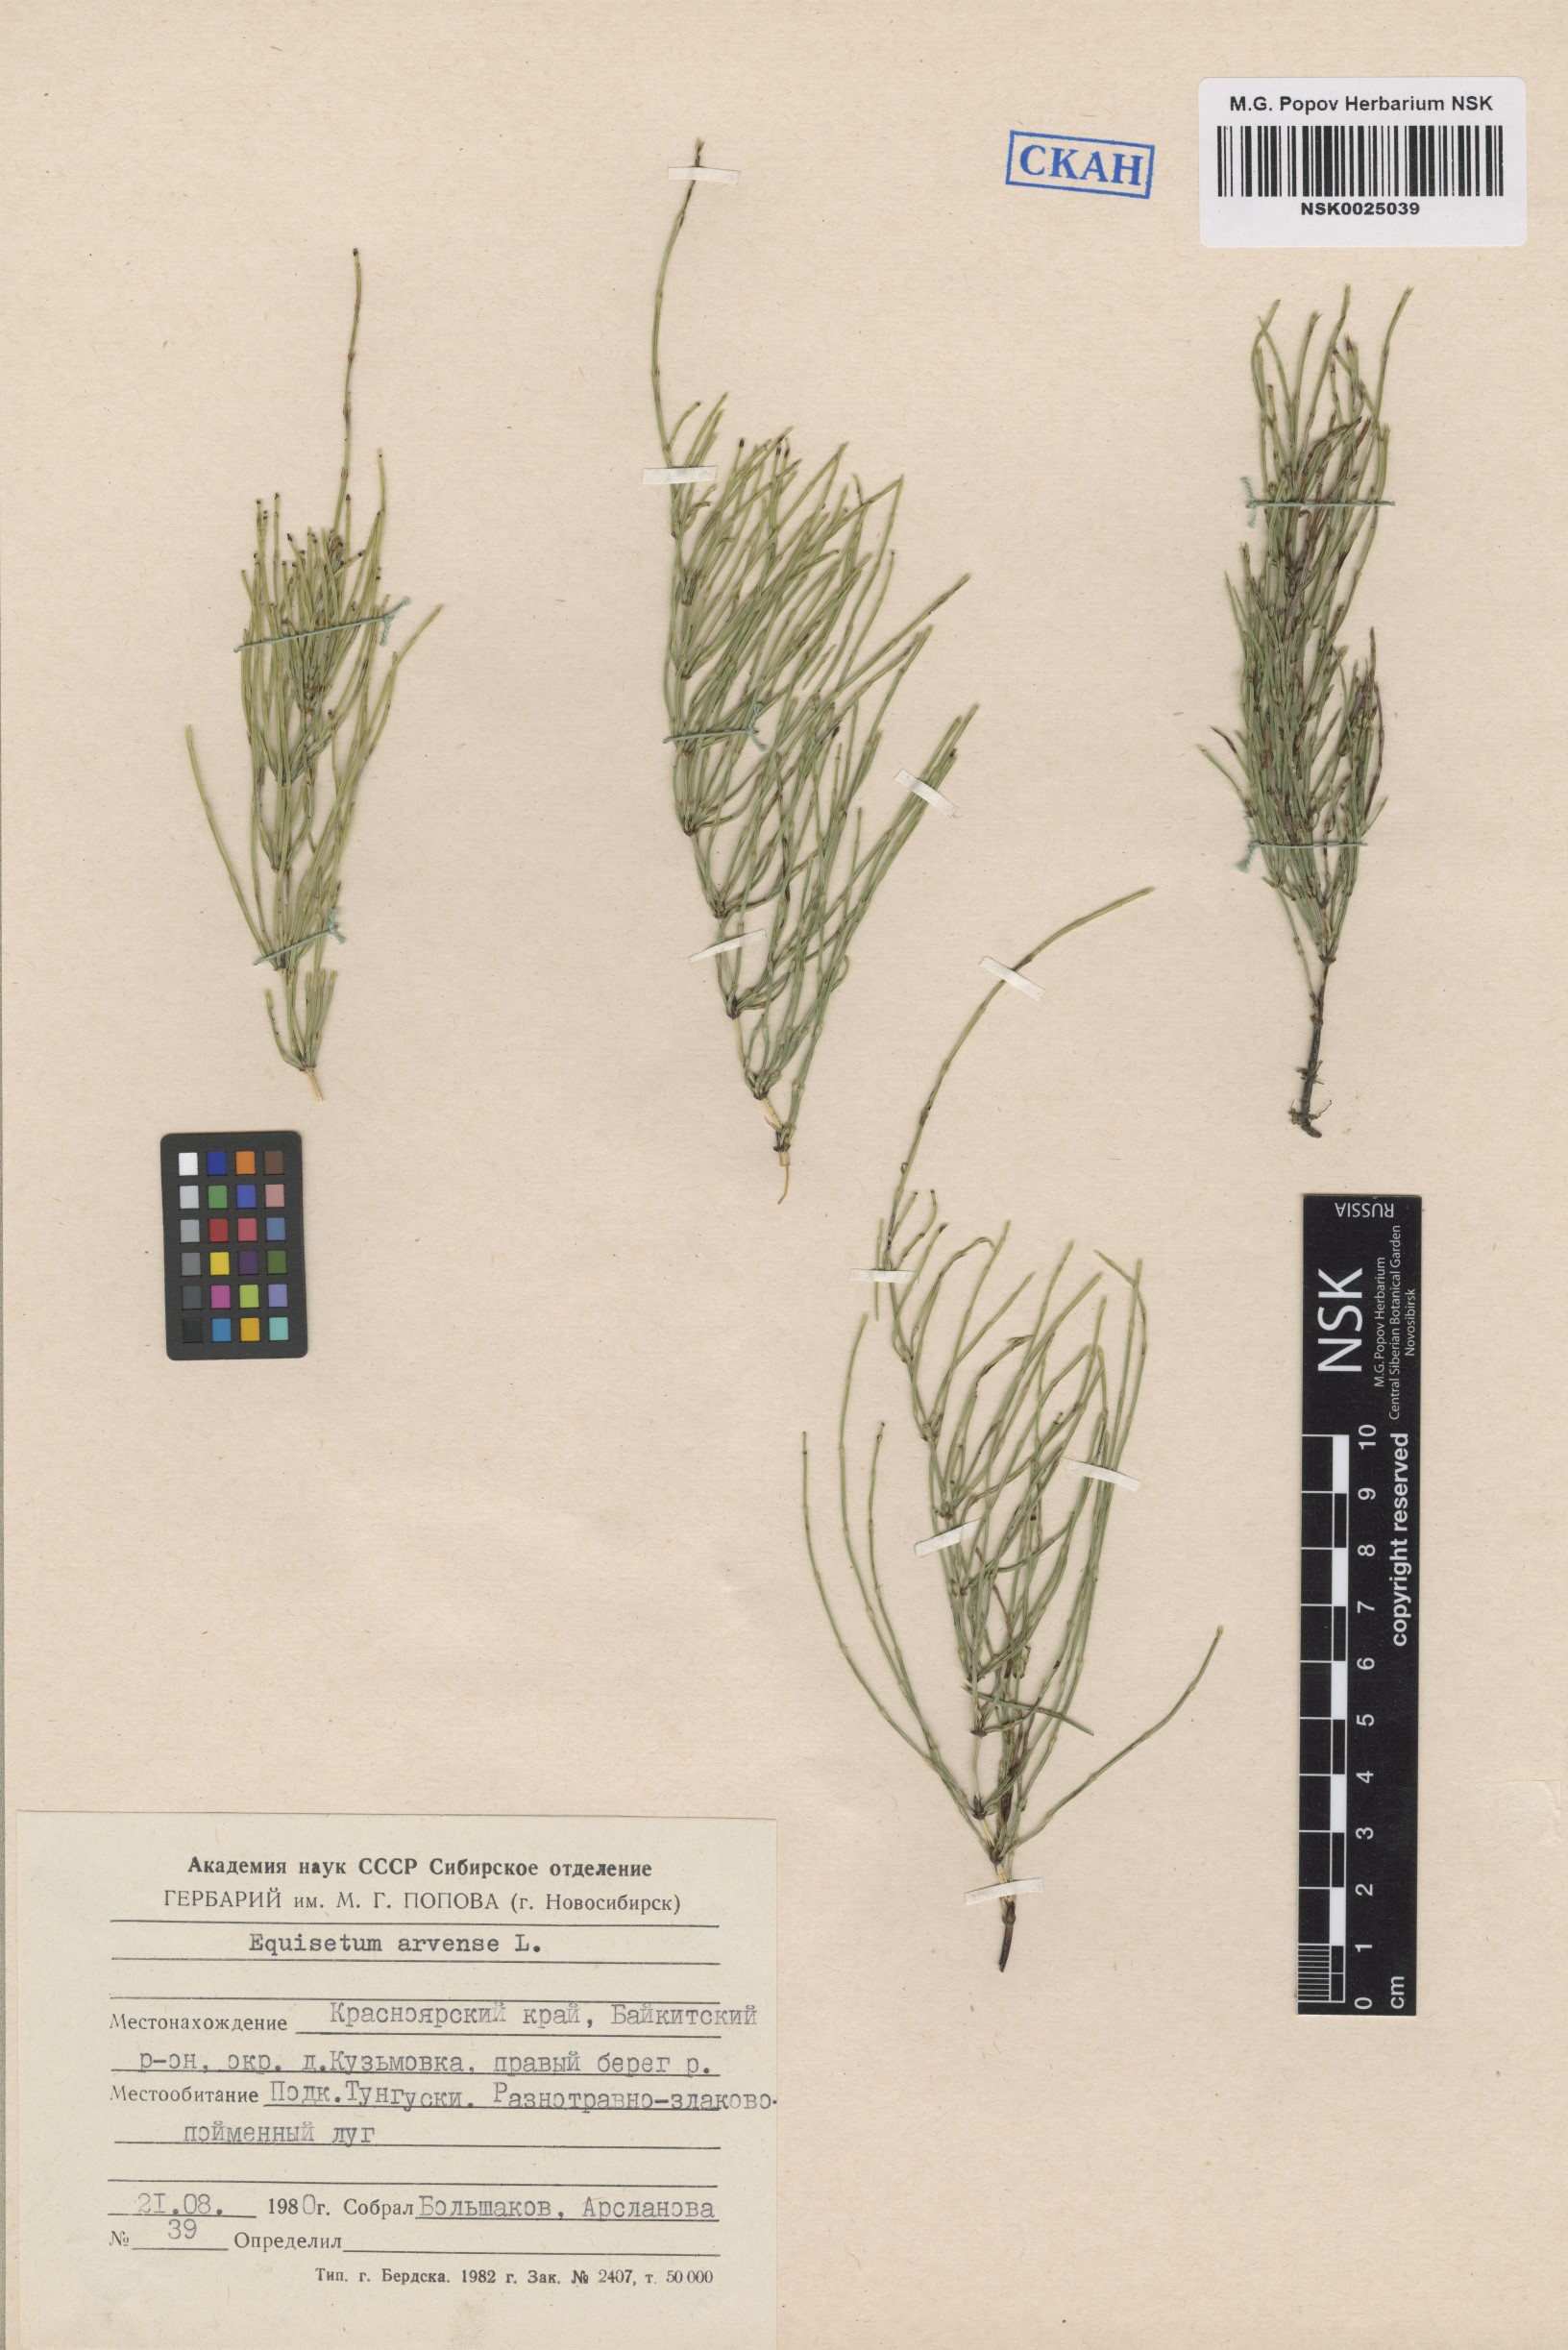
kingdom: Plantae
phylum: Tracheophyta
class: Polypodiopsida
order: Equisetales
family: Equisetaceae
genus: Equisetum
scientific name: Equisetum arvense
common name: Field horsetail
